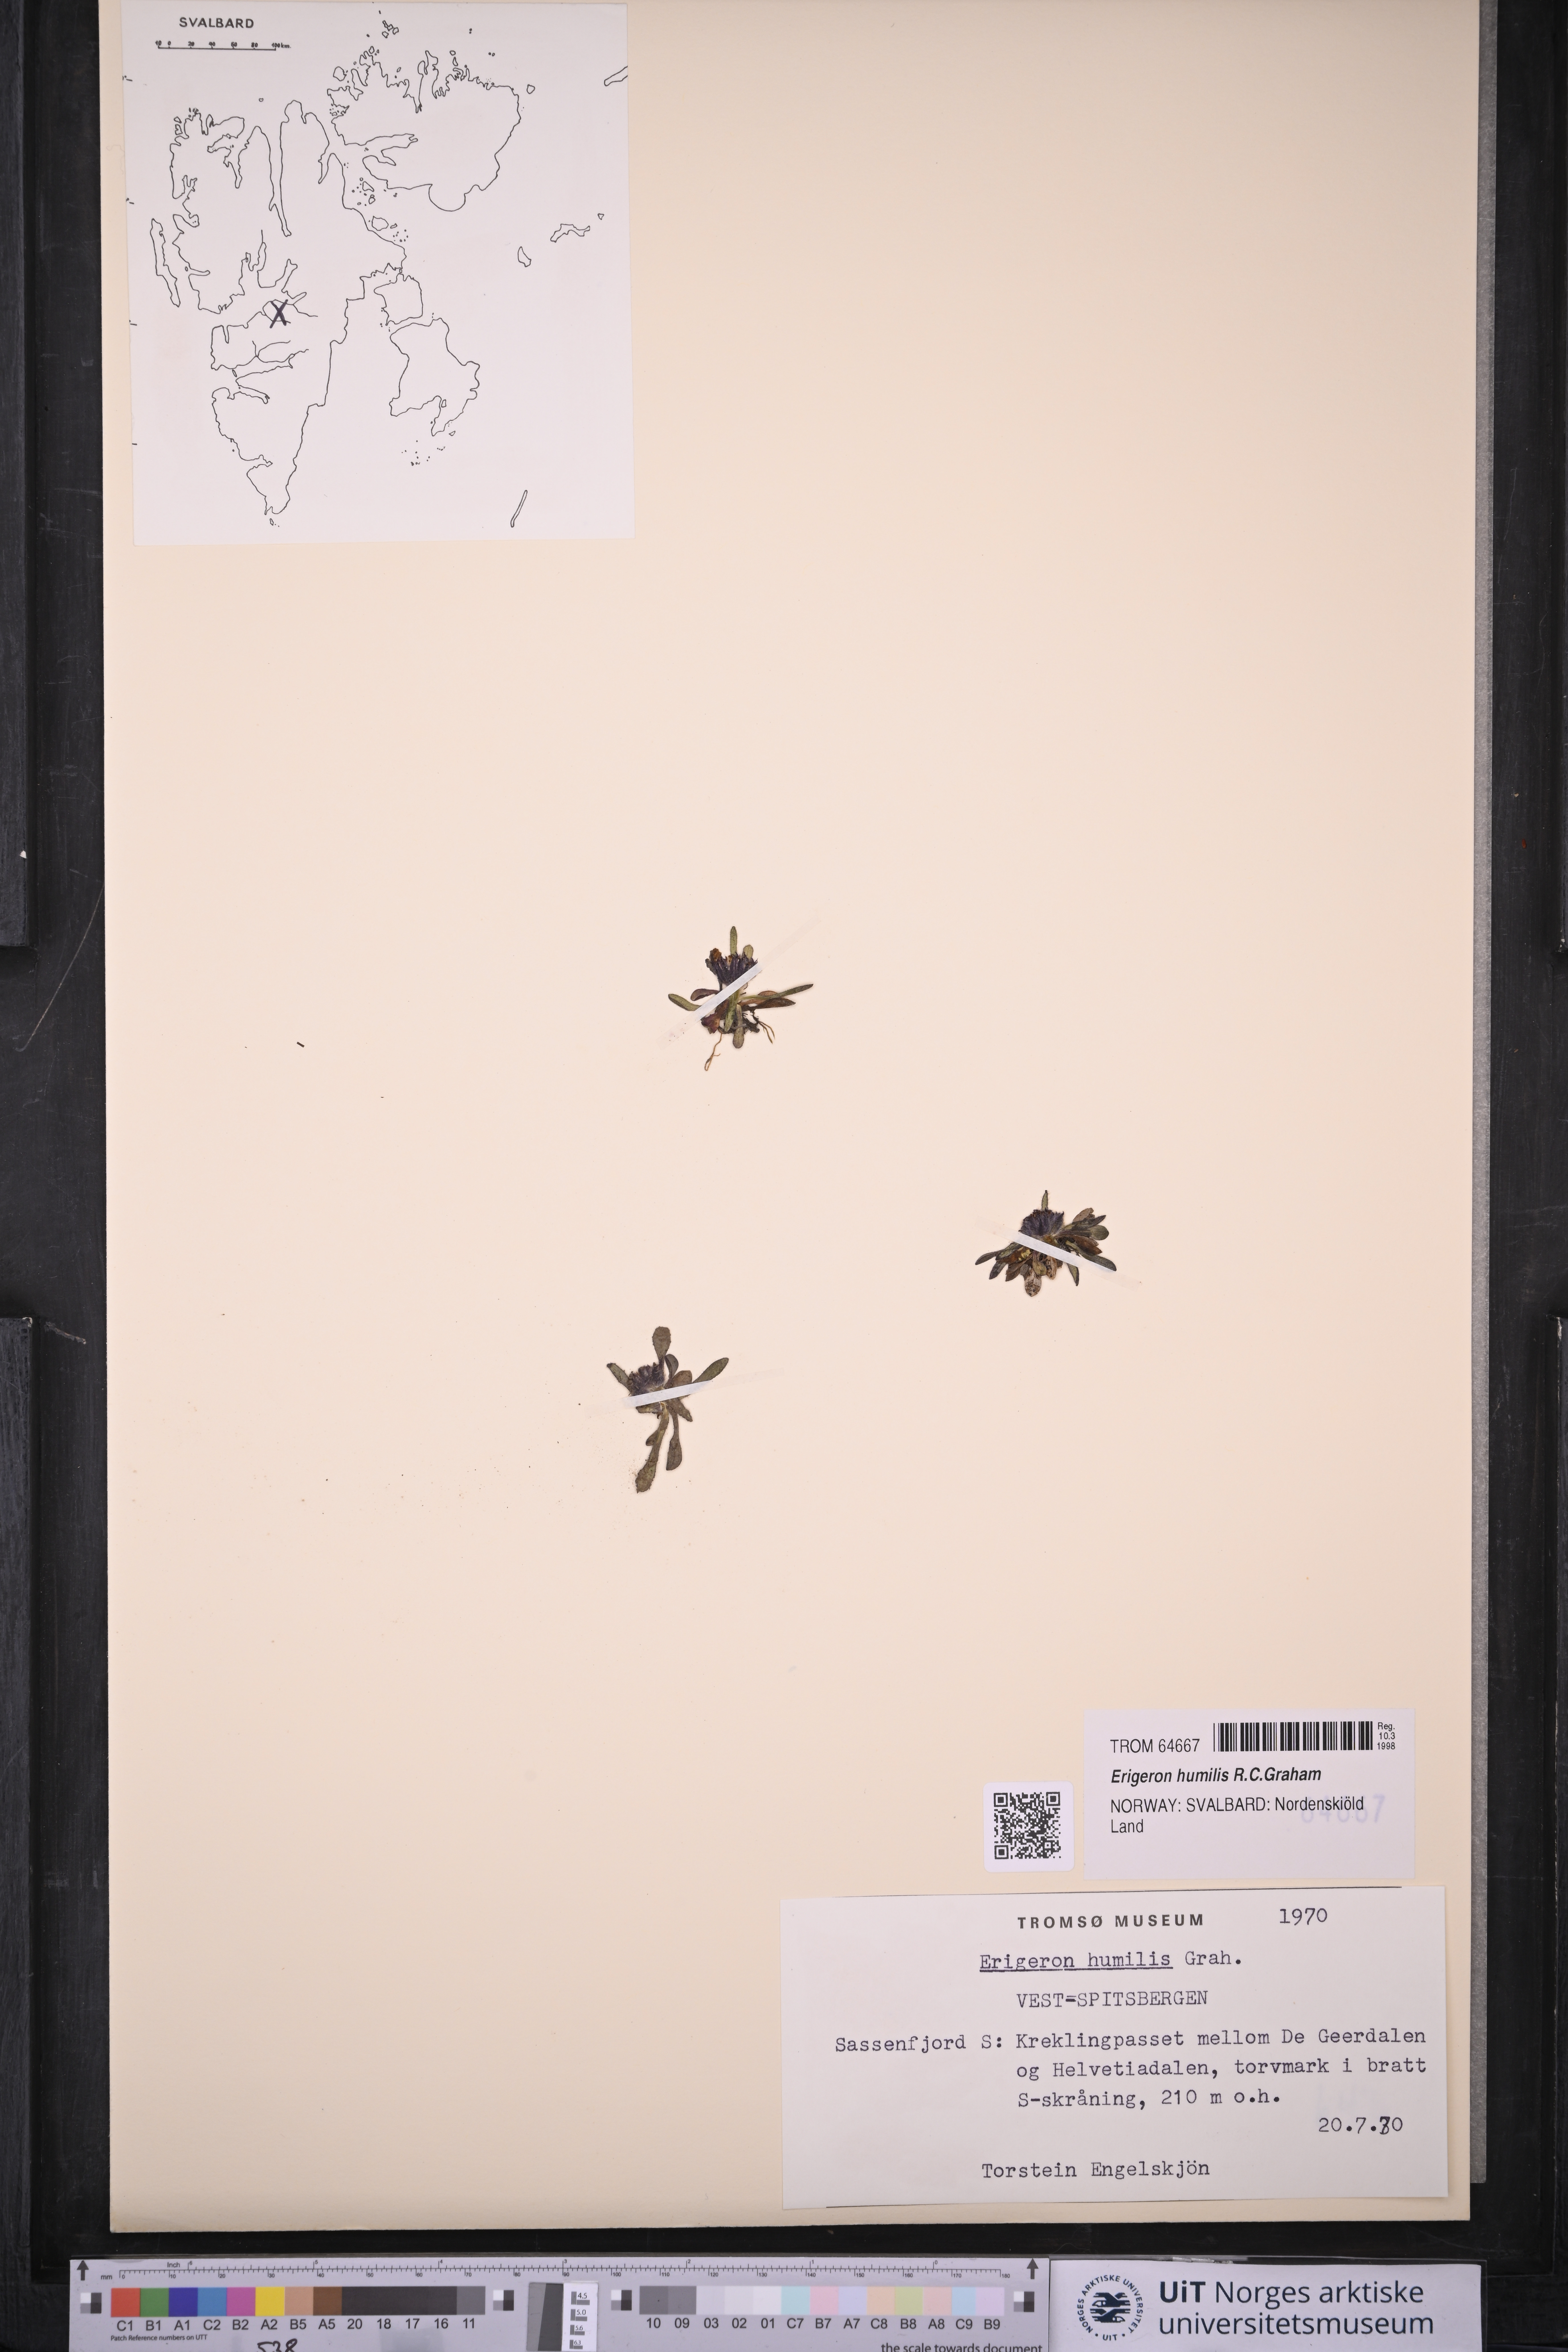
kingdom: Plantae
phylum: Tracheophyta
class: Magnoliopsida
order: Asterales
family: Asteraceae
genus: Erigeron
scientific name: Erigeron humilis
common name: Arctic-alpine fleabane
